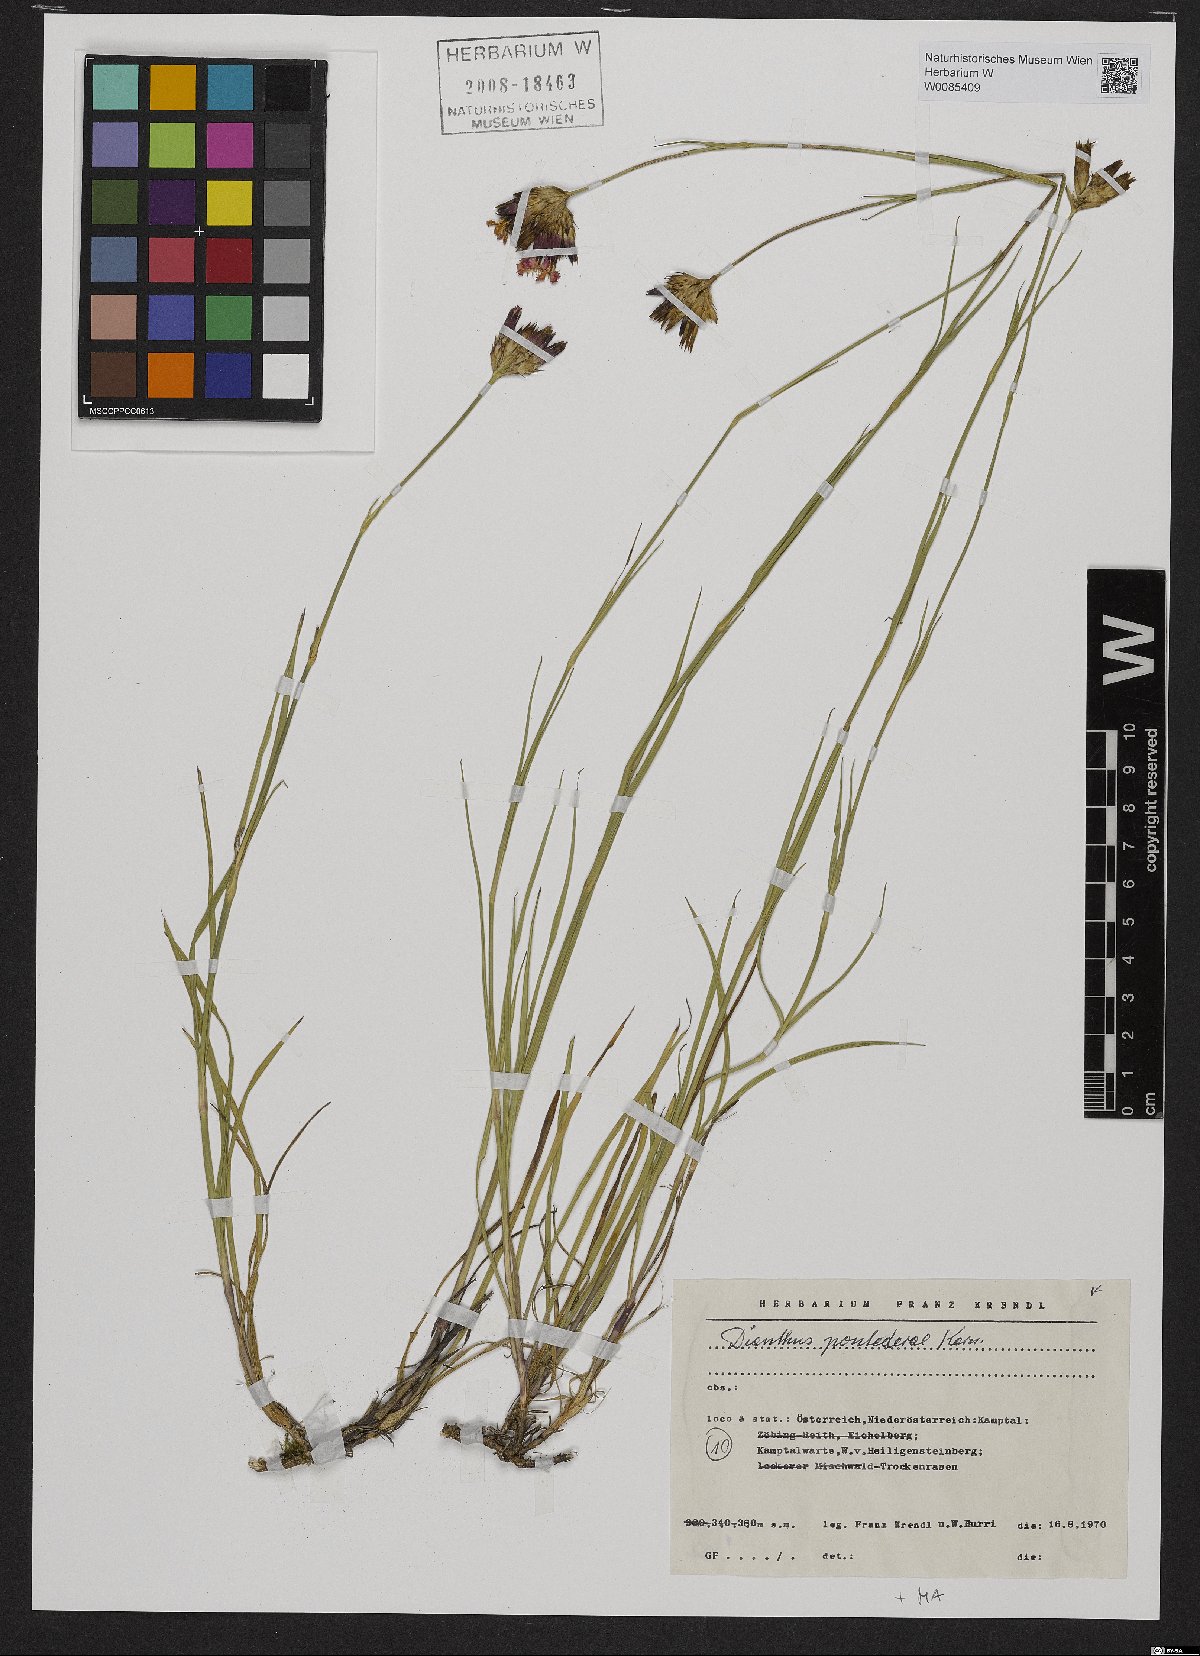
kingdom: Plantae
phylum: Tracheophyta
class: Magnoliopsida
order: Caryophyllales
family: Caryophyllaceae
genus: Dianthus
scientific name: Dianthus pontederae
